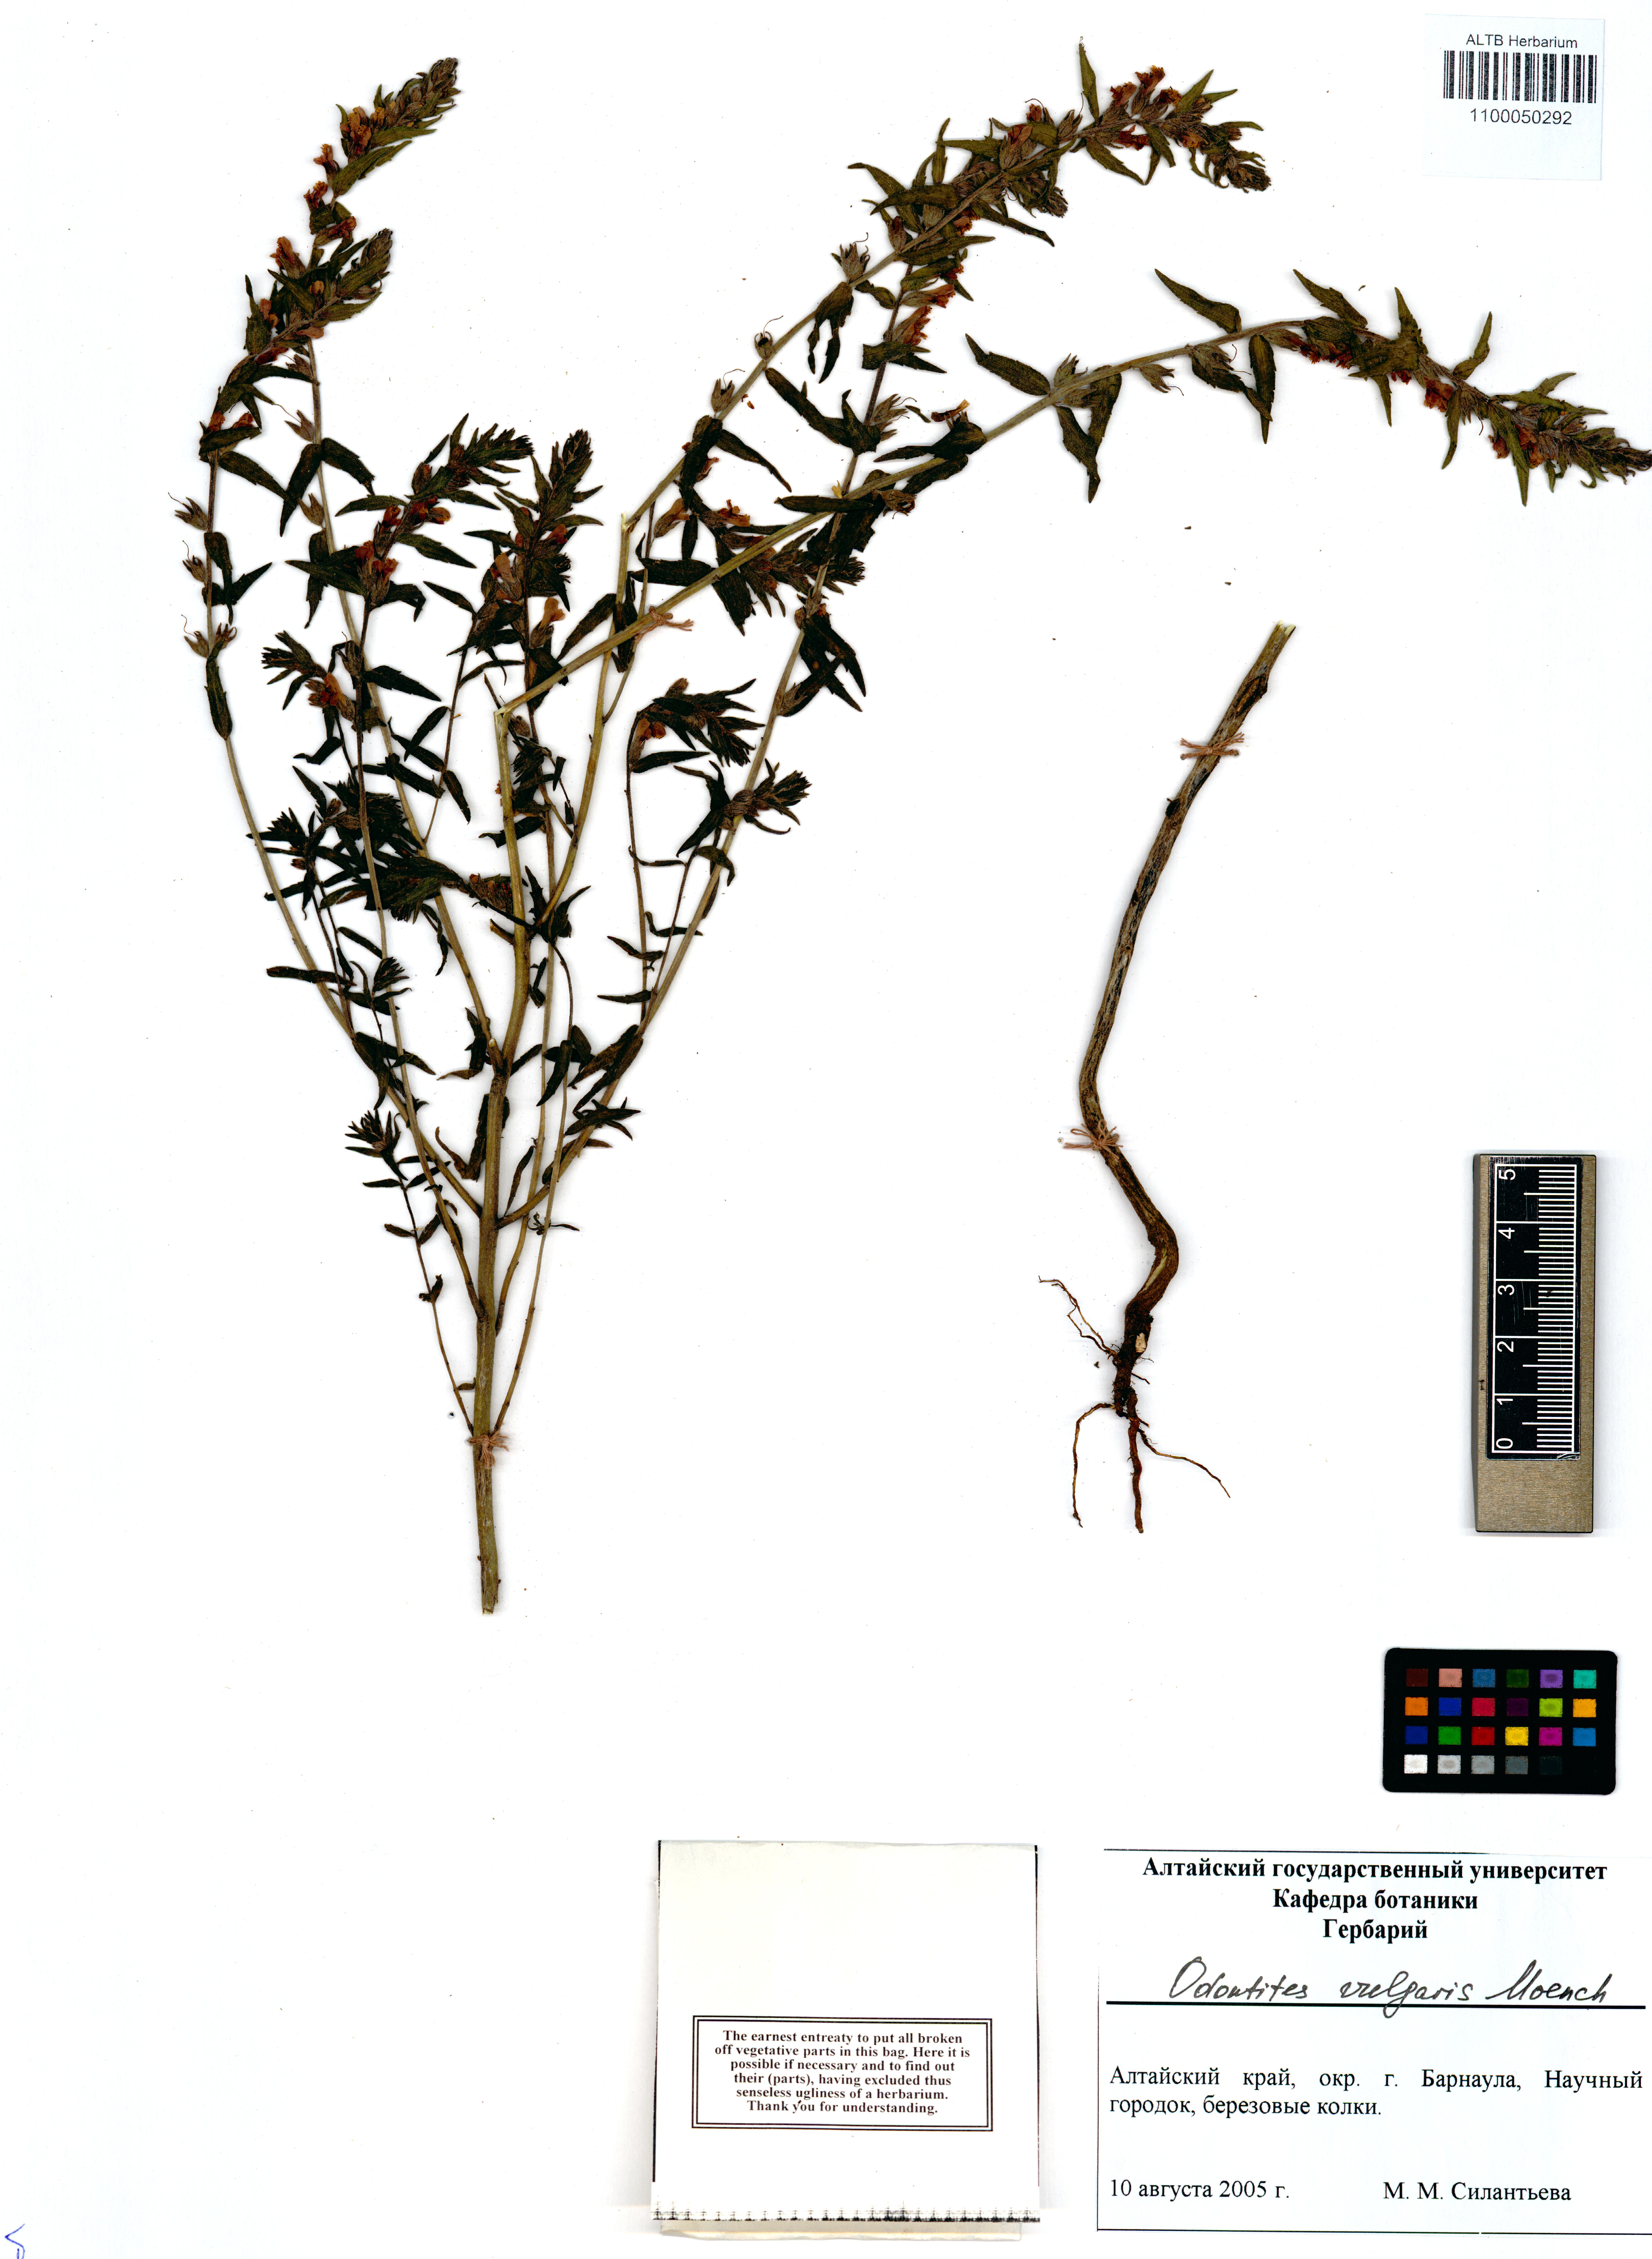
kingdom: Plantae
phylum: Tracheophyta
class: Magnoliopsida
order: Lamiales
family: Orobanchaceae
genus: Odontites
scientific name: Odontites vulgaris
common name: Broomrape
